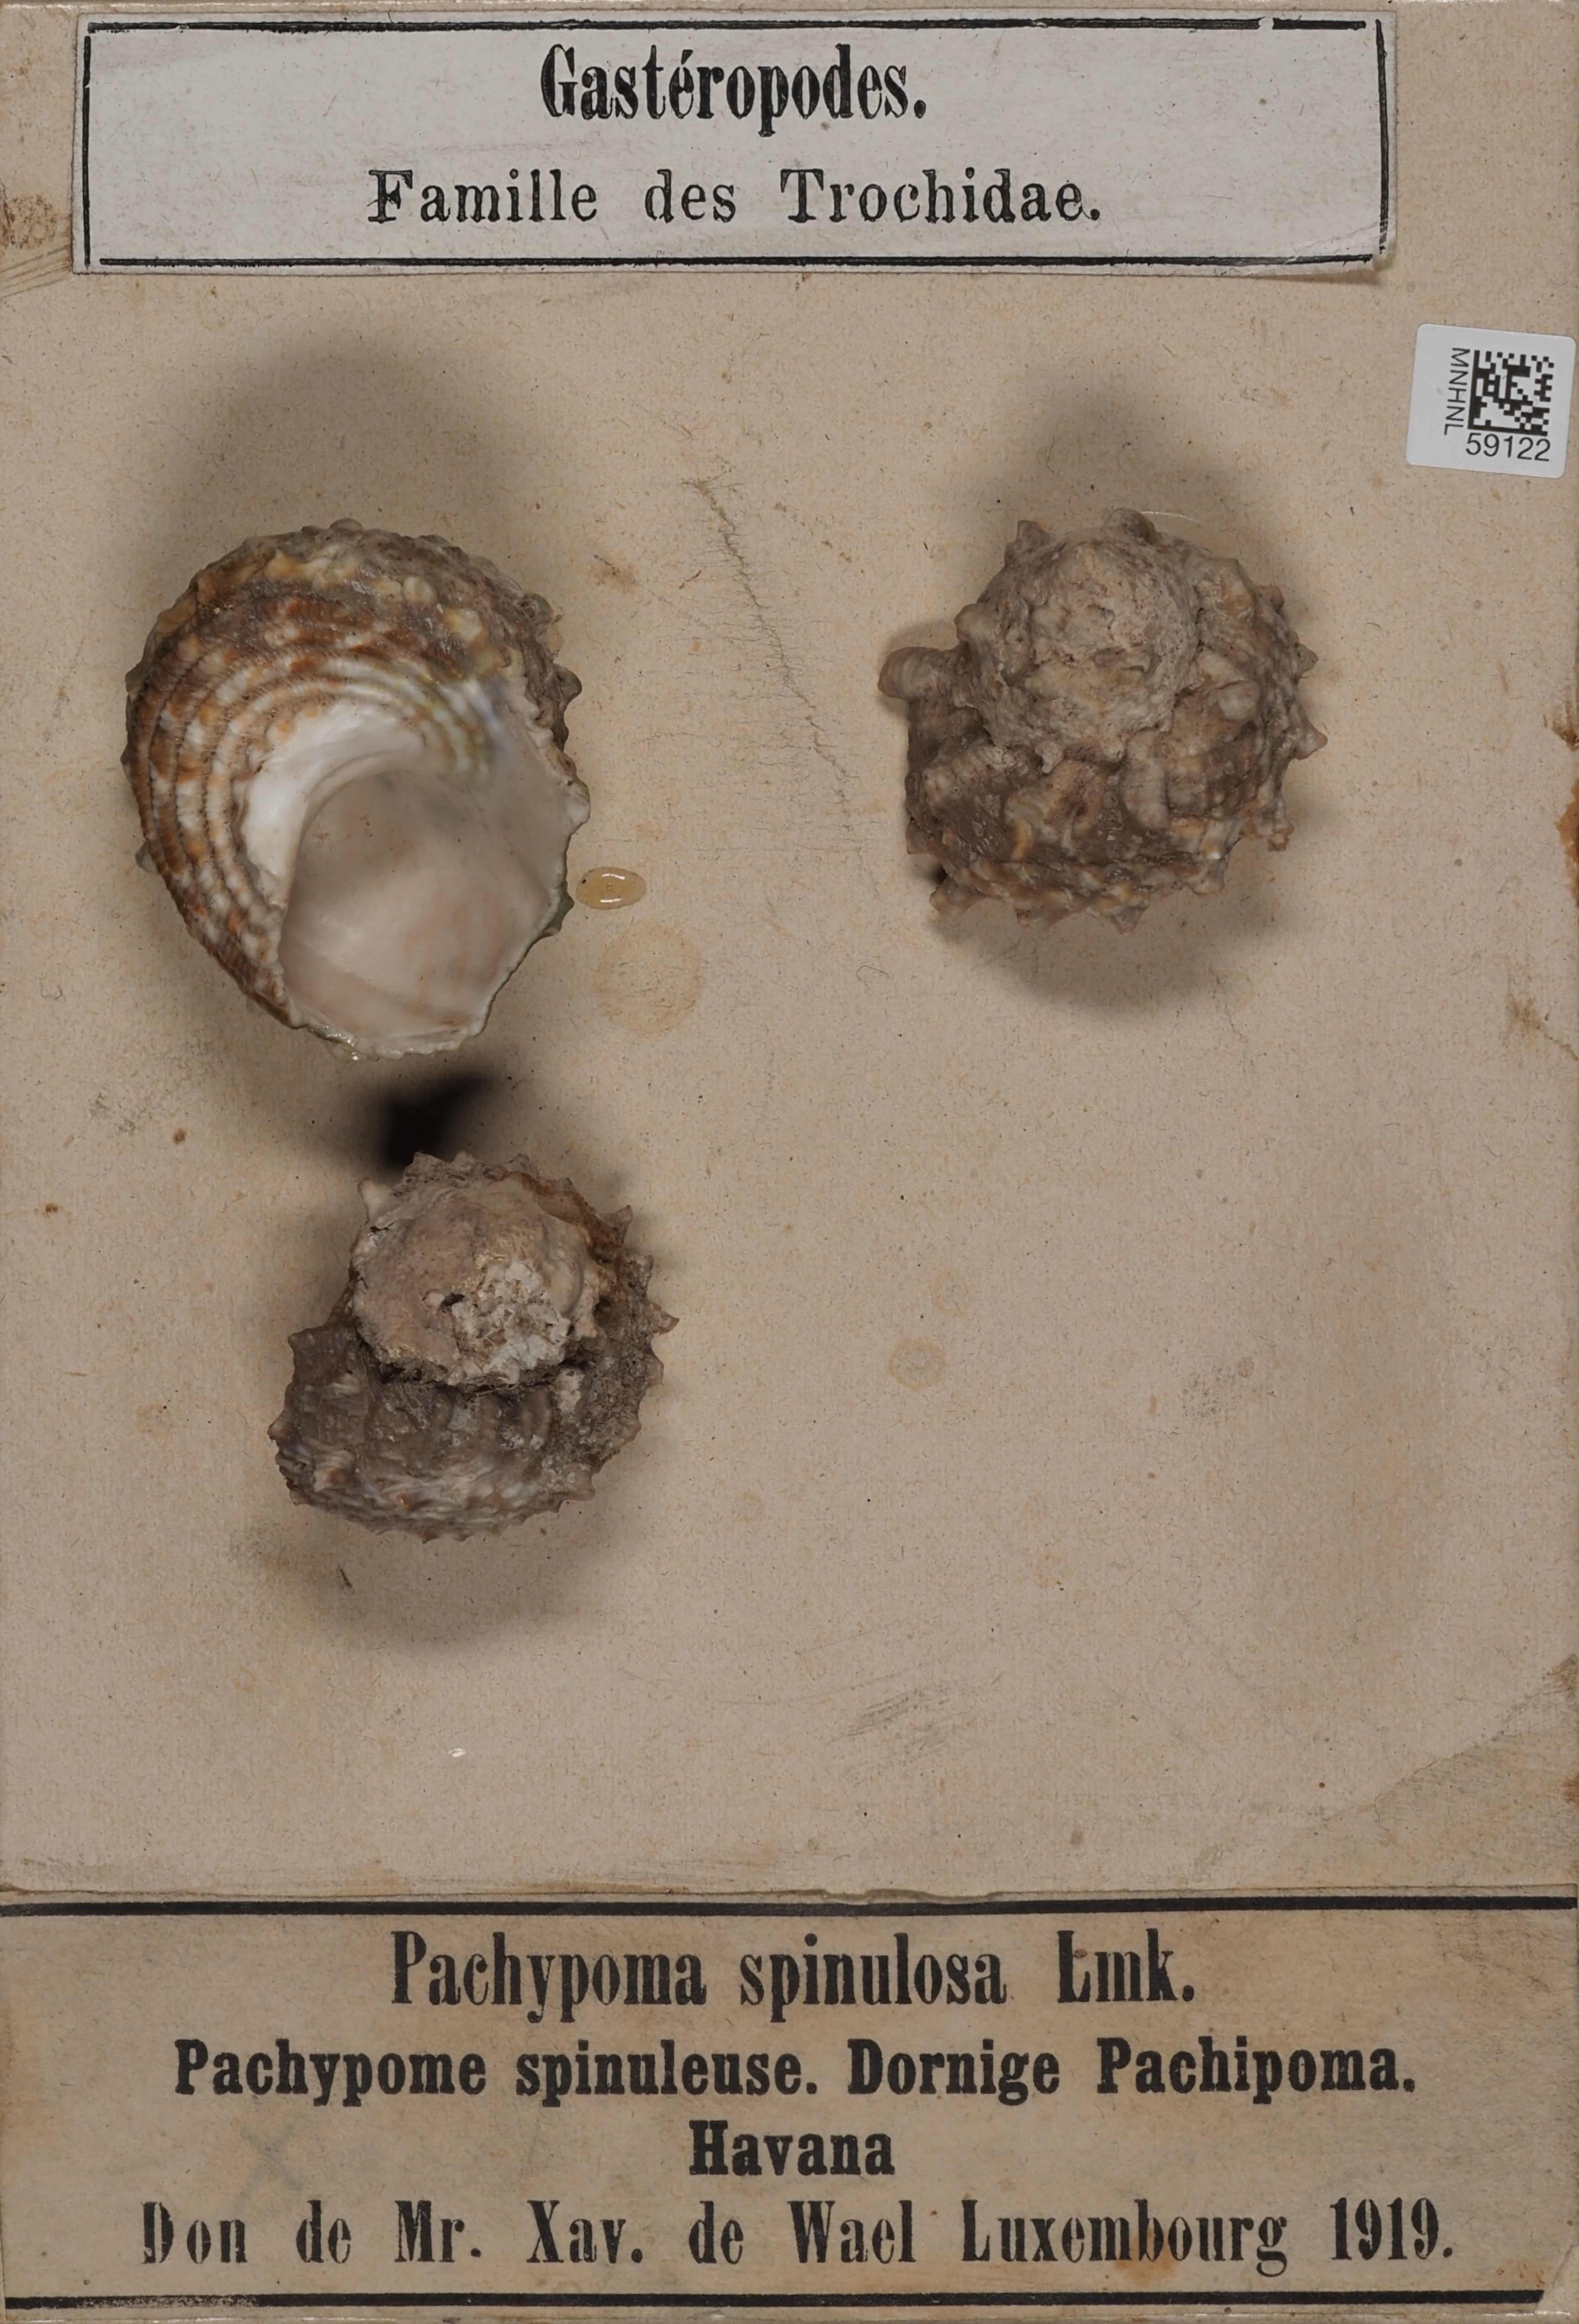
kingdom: Animalia
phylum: Mollusca
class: Gastropoda
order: Trochida
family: Turbinidae
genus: Lithopoma
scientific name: Lithopoma
